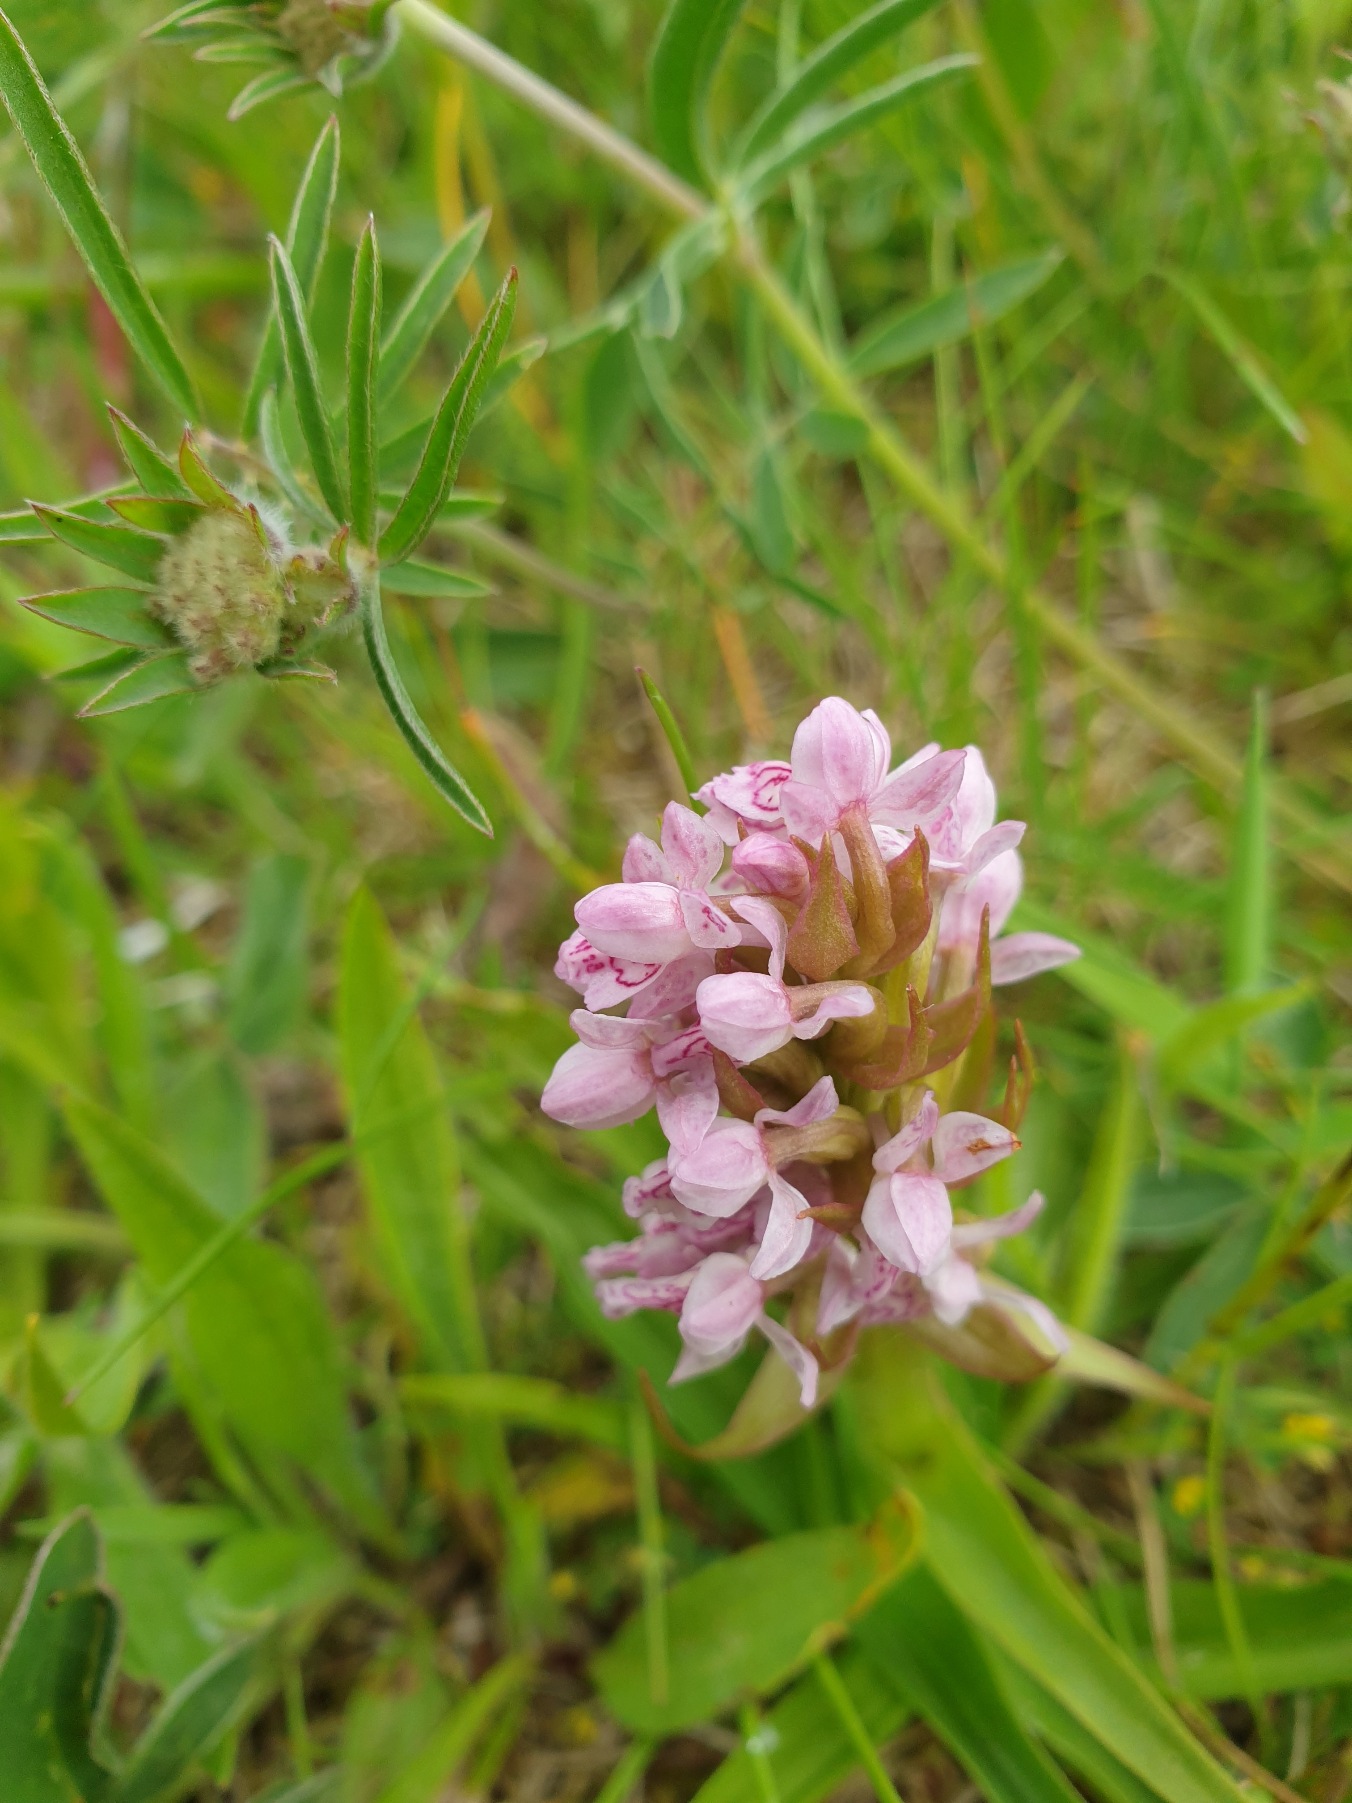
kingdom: Plantae
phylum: Tracheophyta
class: Liliopsida
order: Asparagales
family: Orchidaceae
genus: Dactylorhiza
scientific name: Dactylorhiza incarnata
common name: Kødfarvet gøgeurt
